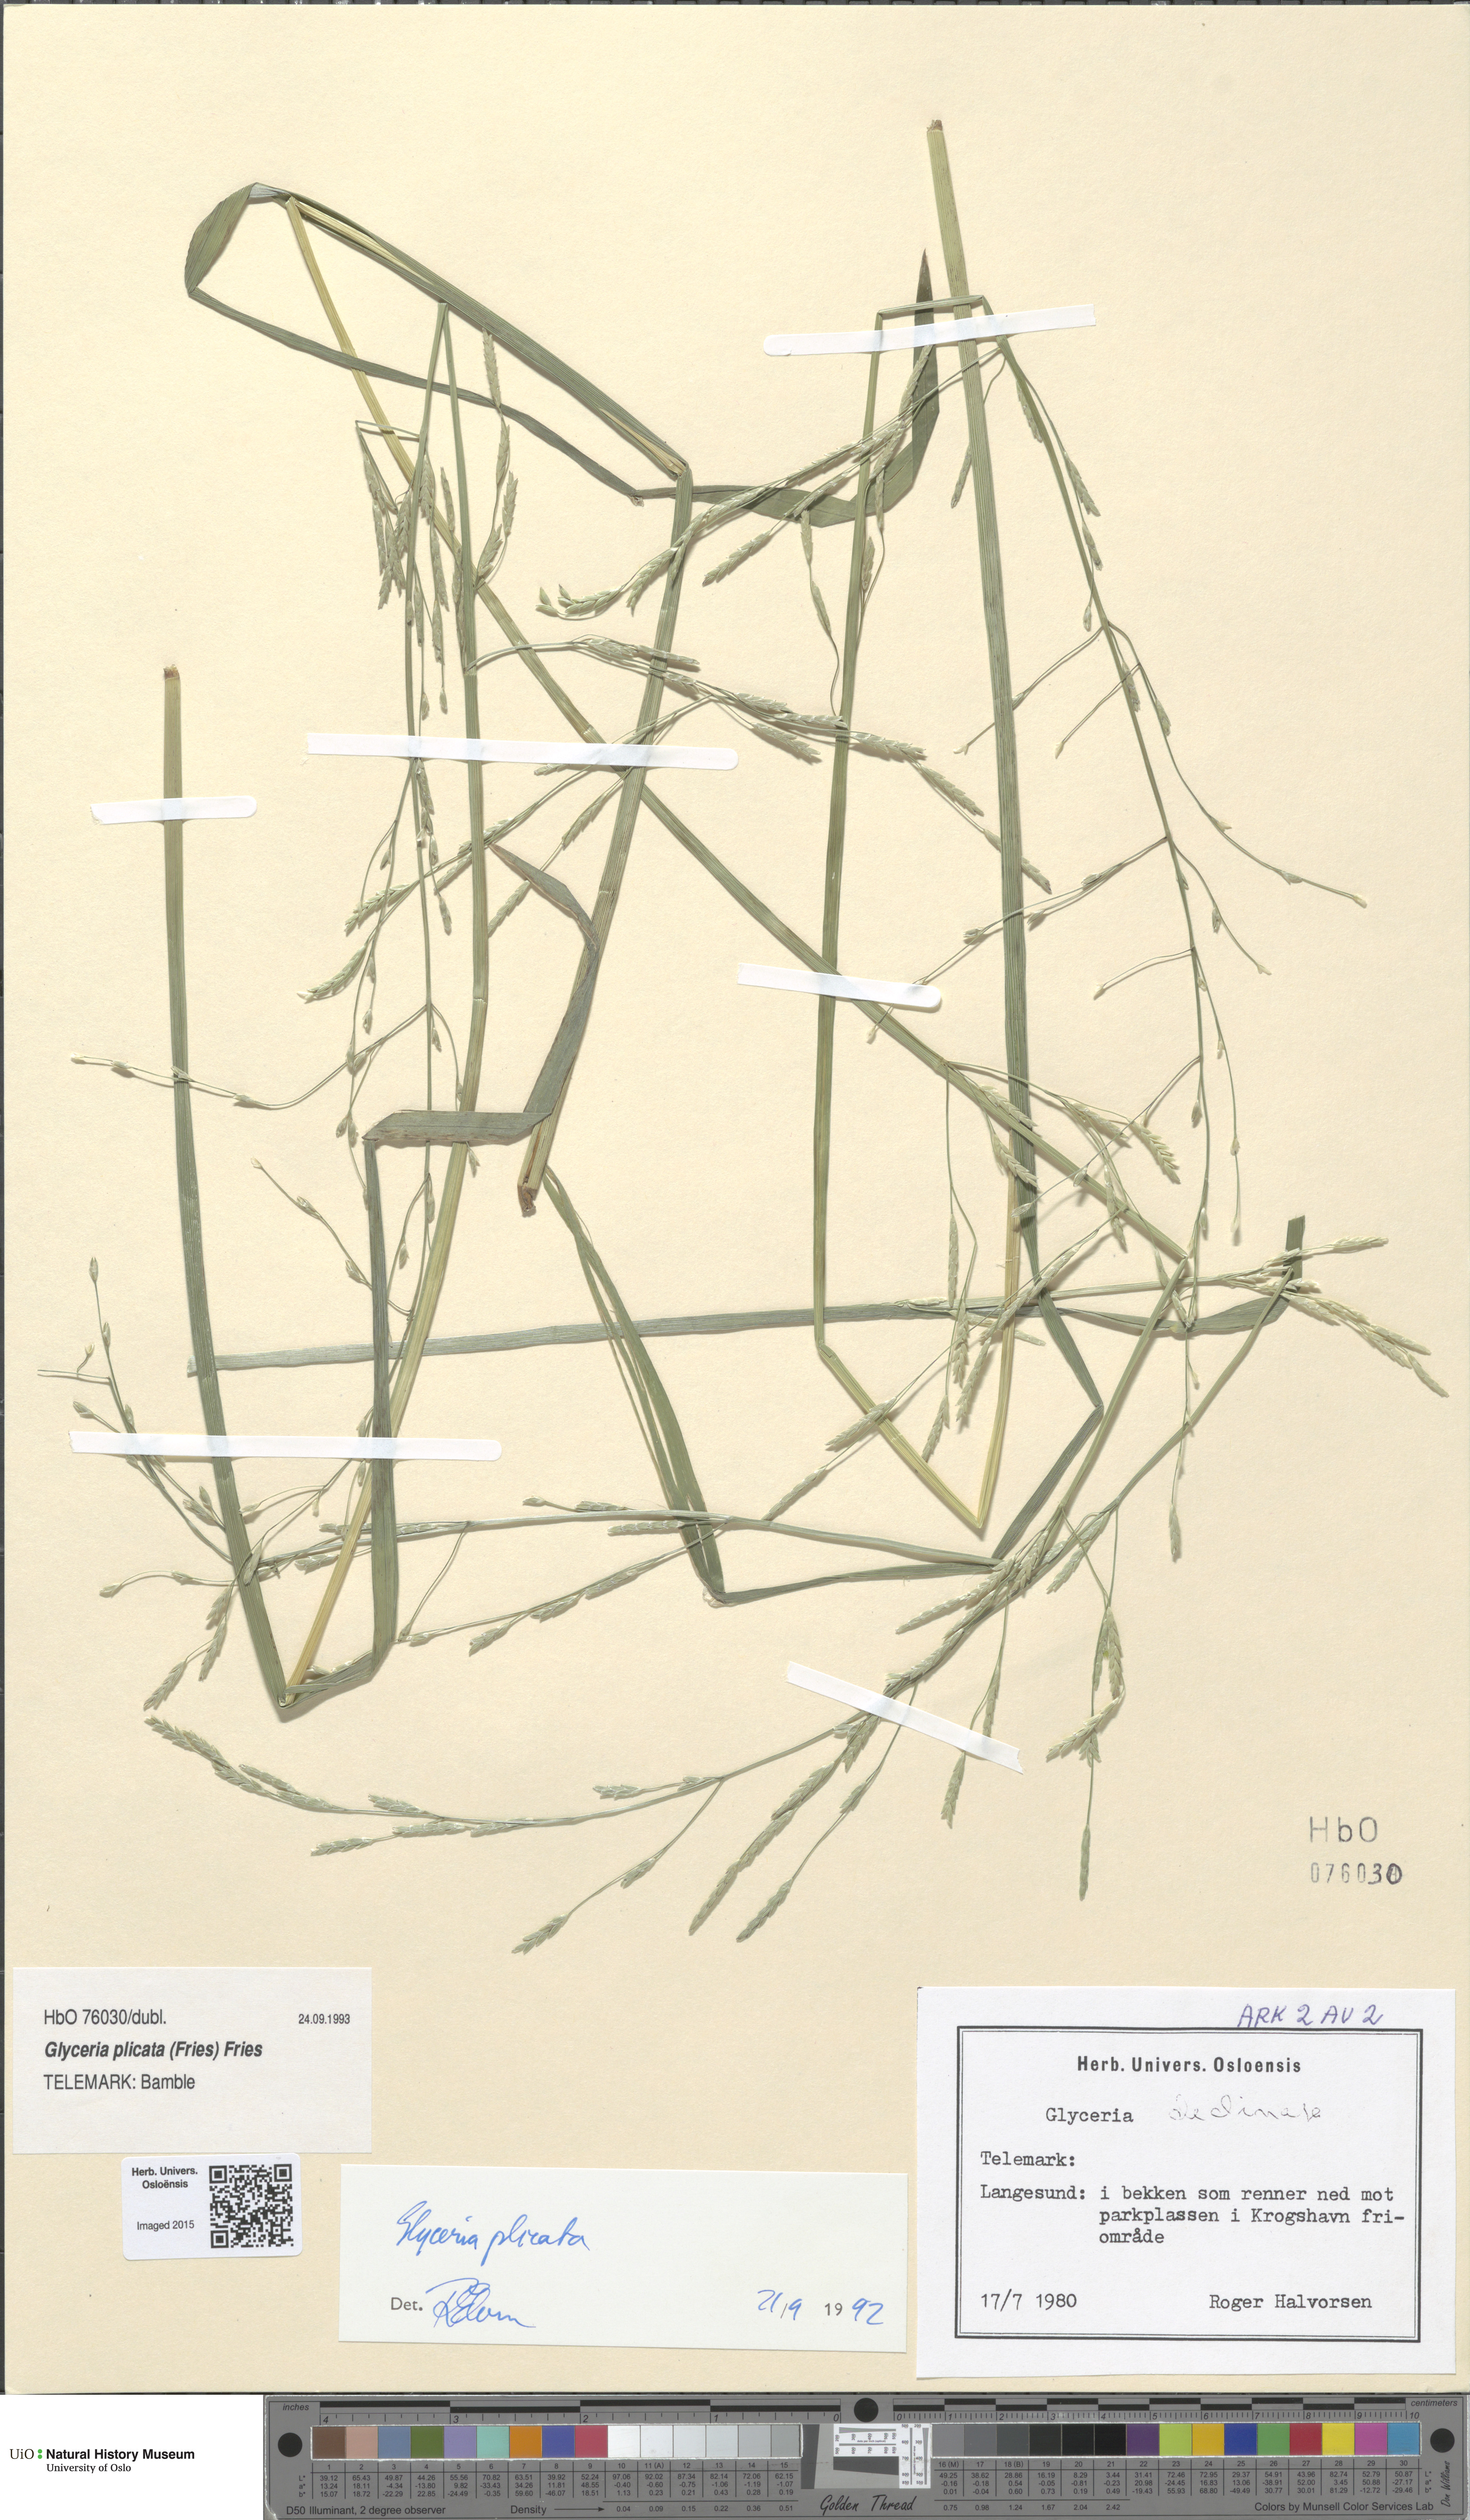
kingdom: Plantae
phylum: Tracheophyta
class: Liliopsida
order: Poales
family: Poaceae
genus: Glyceria
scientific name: Glyceria notata
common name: Plicate sweet-grass
